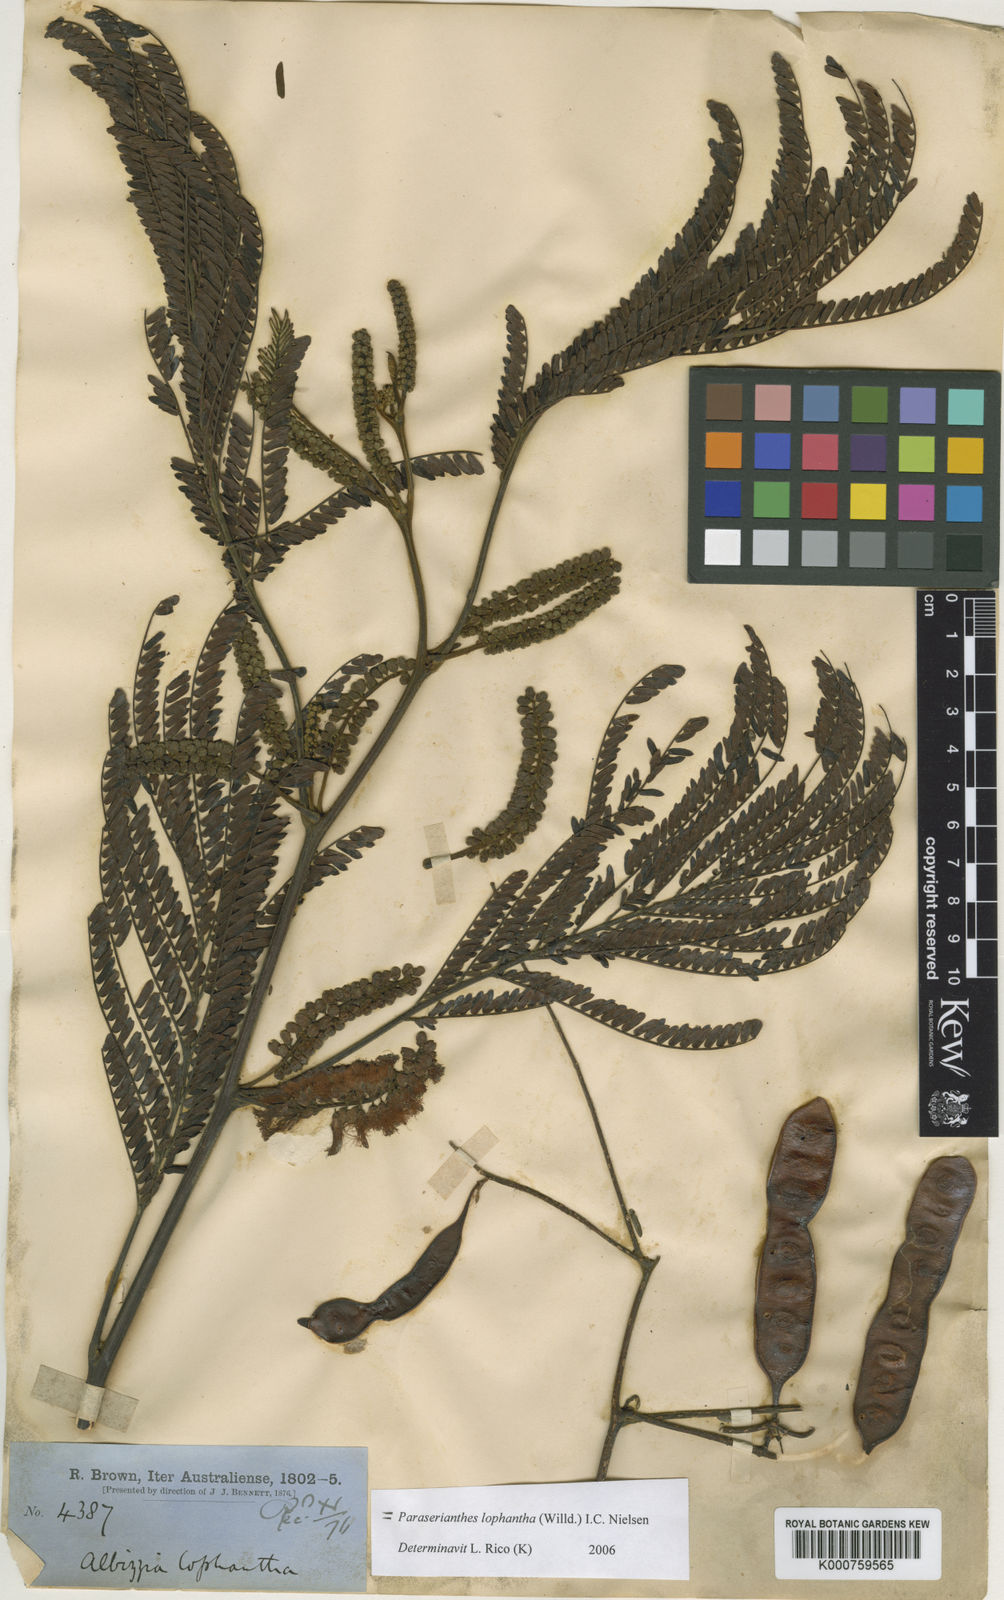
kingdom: Plantae
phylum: Tracheophyta
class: Magnoliopsida
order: Fabales
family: Fabaceae
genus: Paraserianthes
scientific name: Paraserianthes lophantha
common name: Plume albizia
